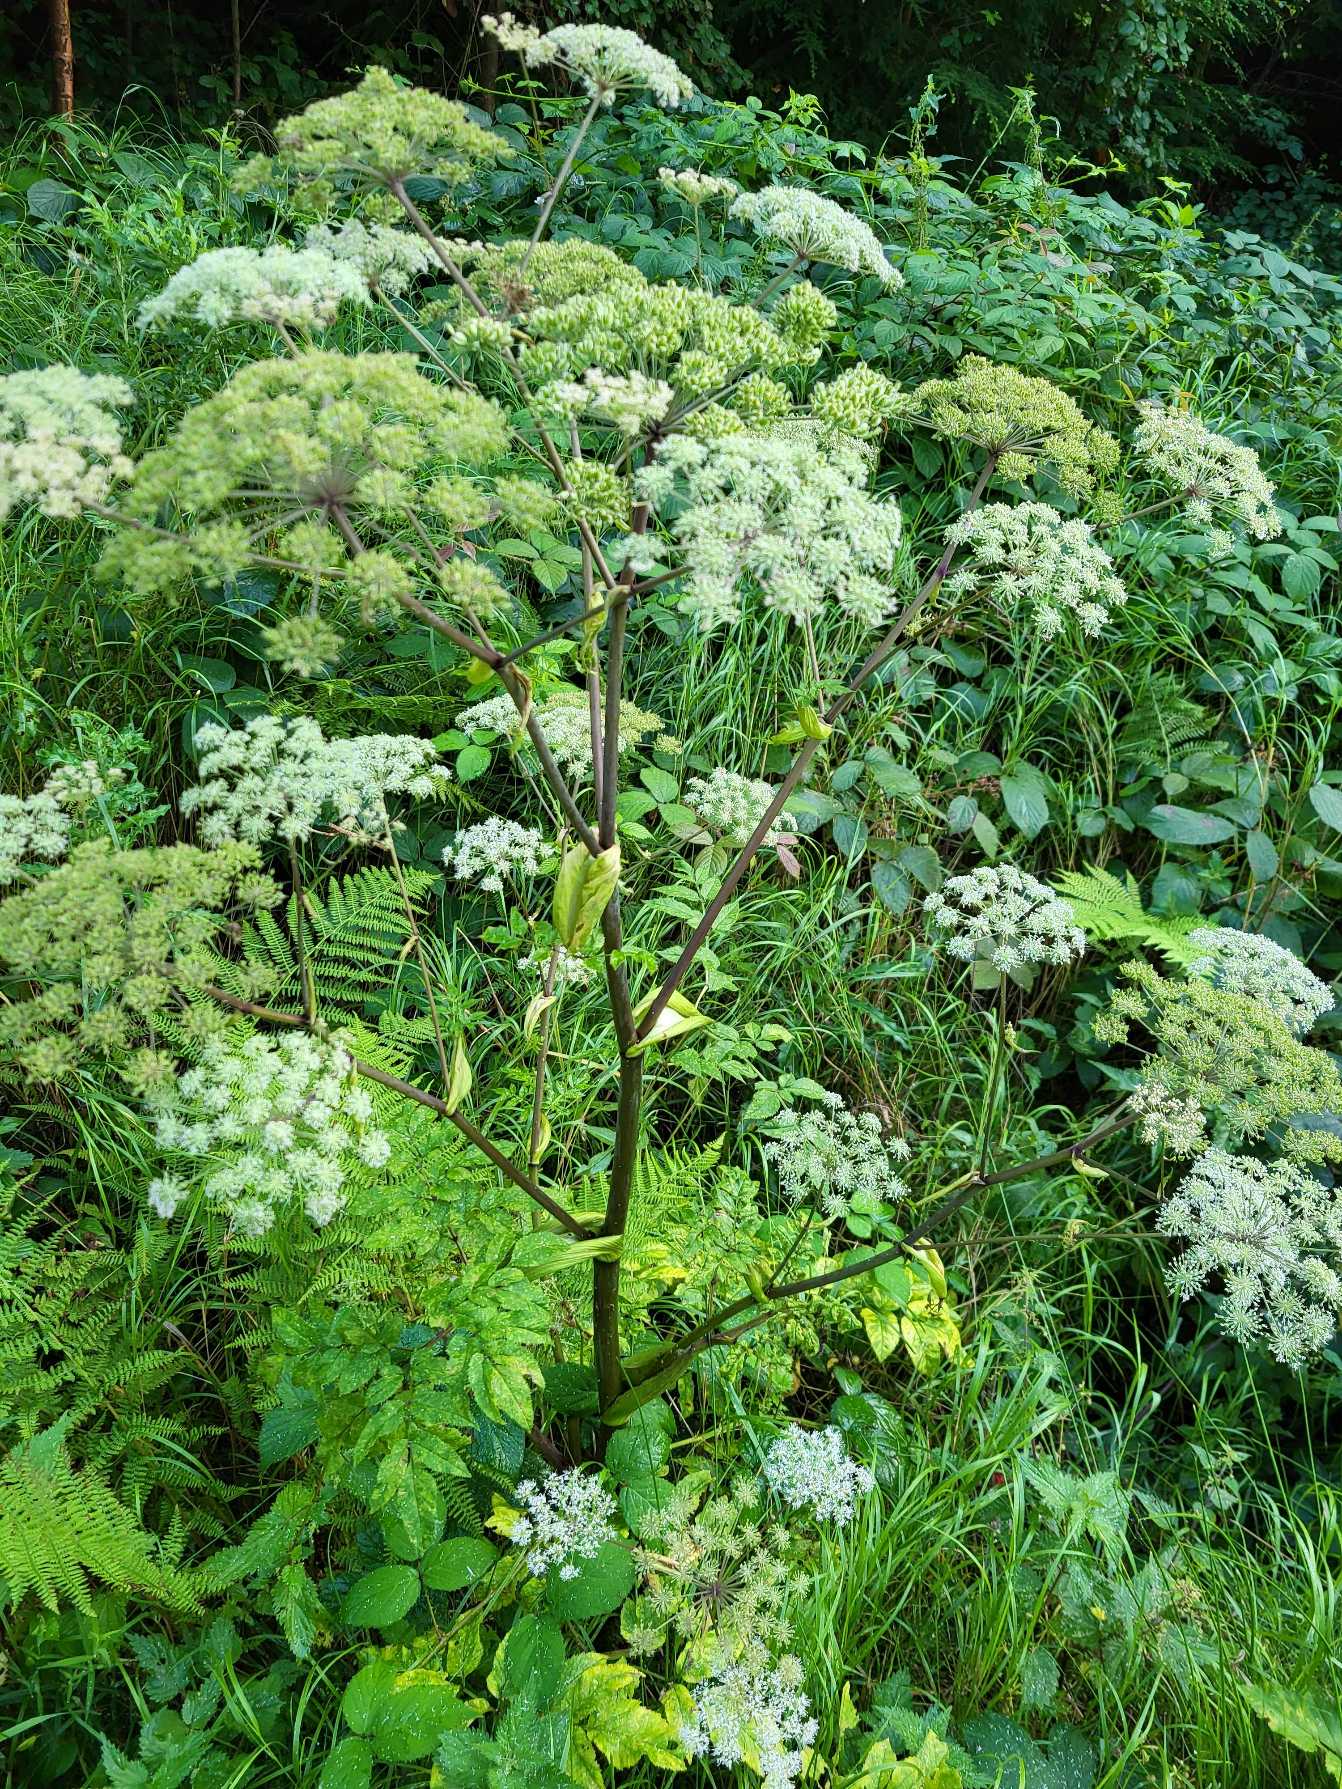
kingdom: Plantae
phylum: Tracheophyta
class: Magnoliopsida
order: Apiales
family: Apiaceae
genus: Angelica
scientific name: Angelica sylvestris
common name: Angelik
